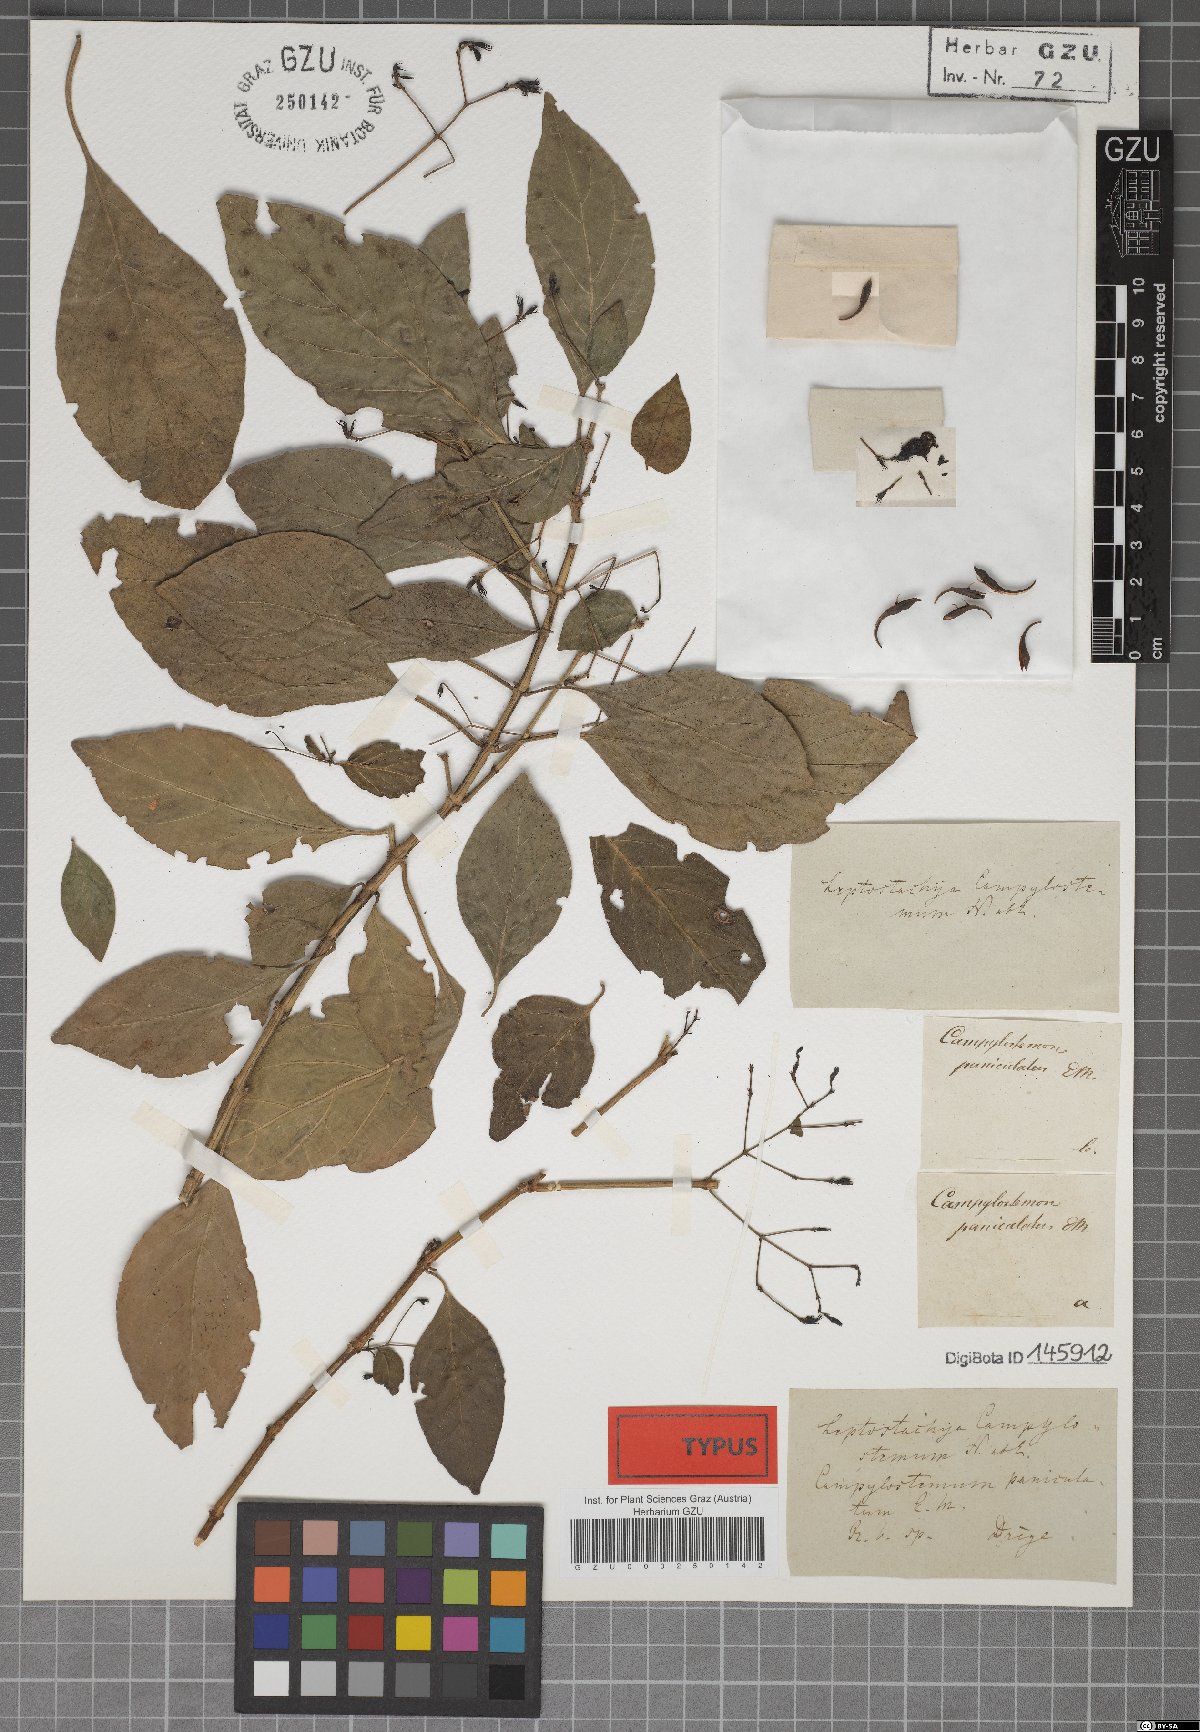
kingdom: Plantae
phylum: Tracheophyta
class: Magnoliopsida
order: Lamiales
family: Acanthaceae
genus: Justicia
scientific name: Justicia campylostemon
